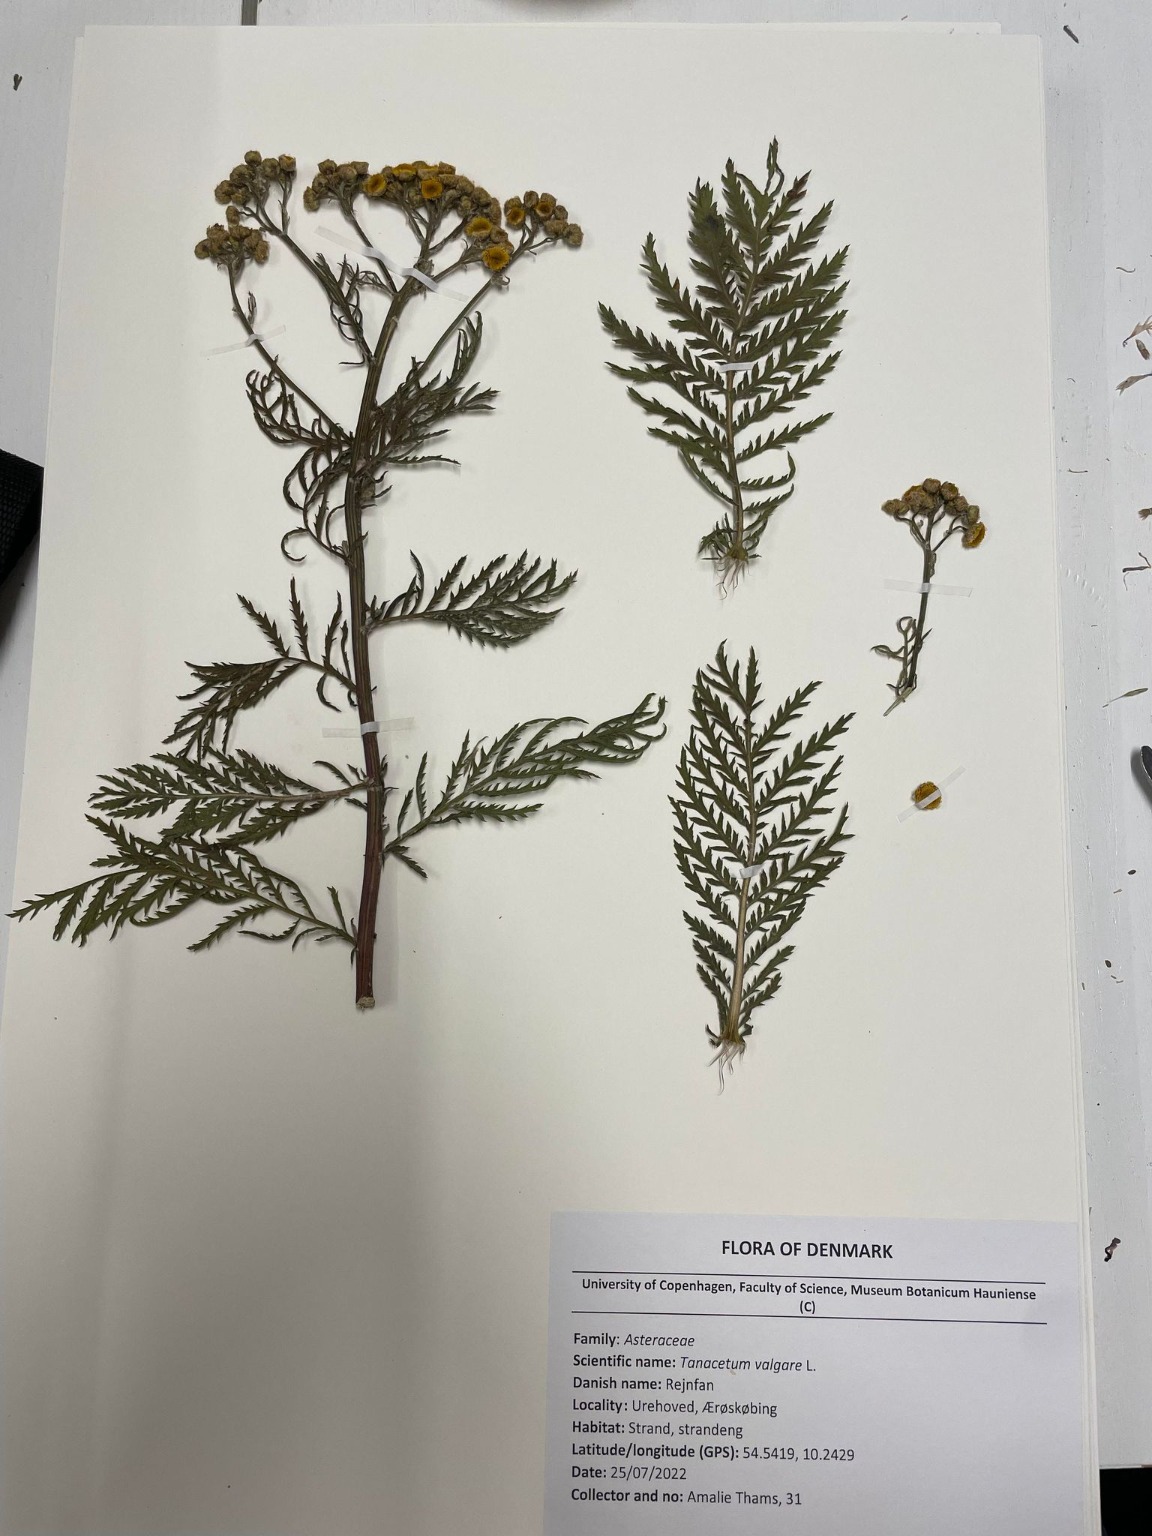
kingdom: Plantae
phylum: Tracheophyta
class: Magnoliopsida
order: Asterales
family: Asteraceae
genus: Tanacetum
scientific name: Tanacetum vulgare
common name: Rejnfan
